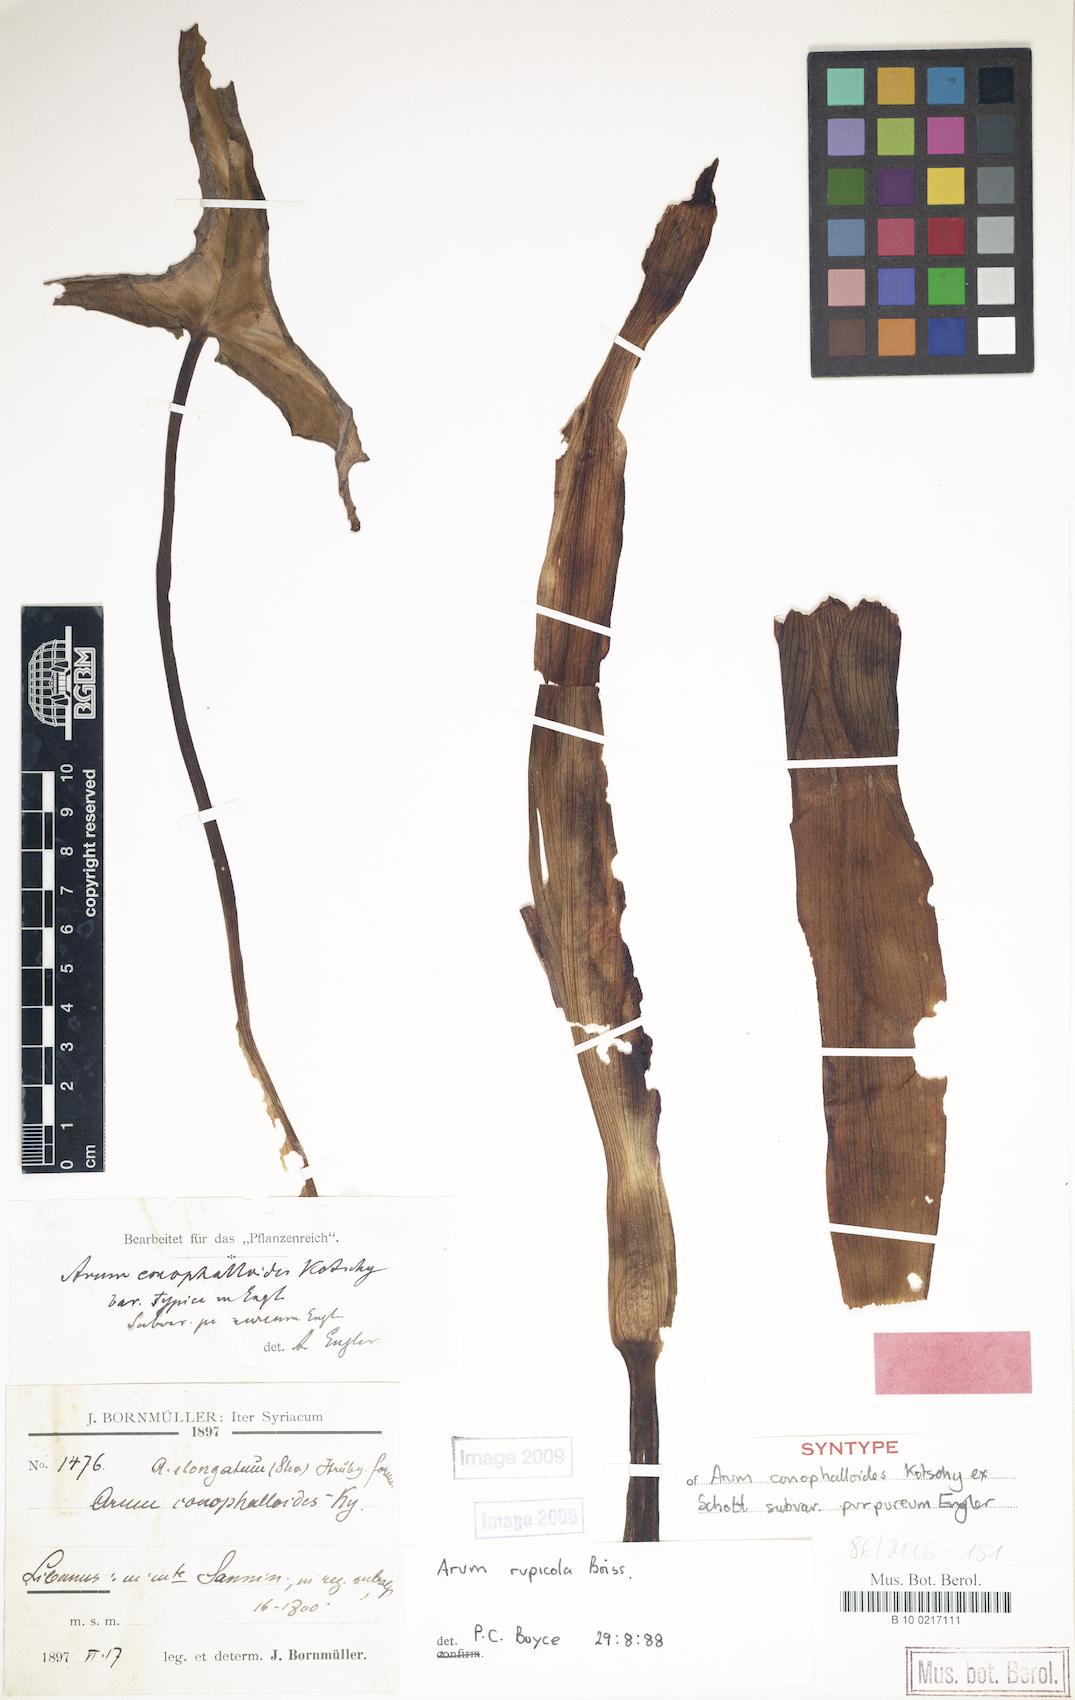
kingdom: Plantae
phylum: Tracheophyta
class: Liliopsida
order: Alismatales
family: Araceae
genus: Arum
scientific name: Arum rupicola
